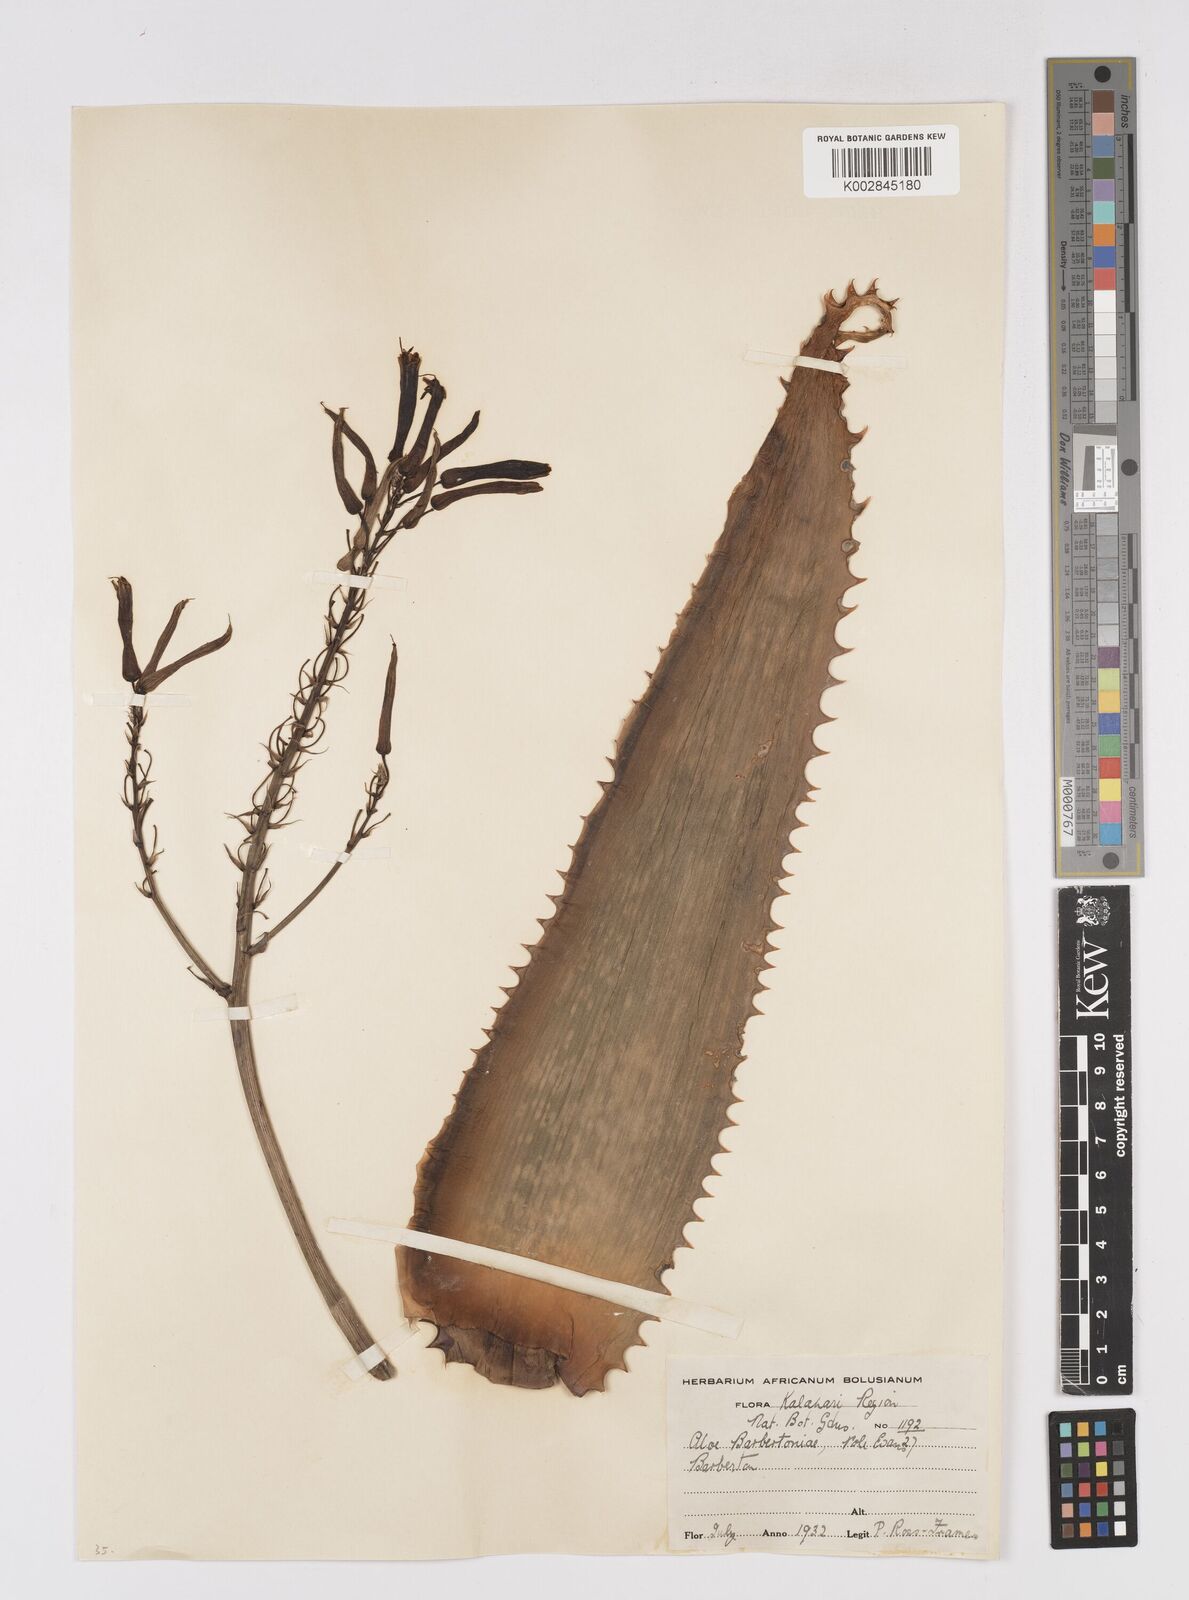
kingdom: Plantae
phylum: Tracheophyta
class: Liliopsida
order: Asparagales
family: Asphodelaceae
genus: Aloe
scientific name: Aloe davyana
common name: Spotted aloe
